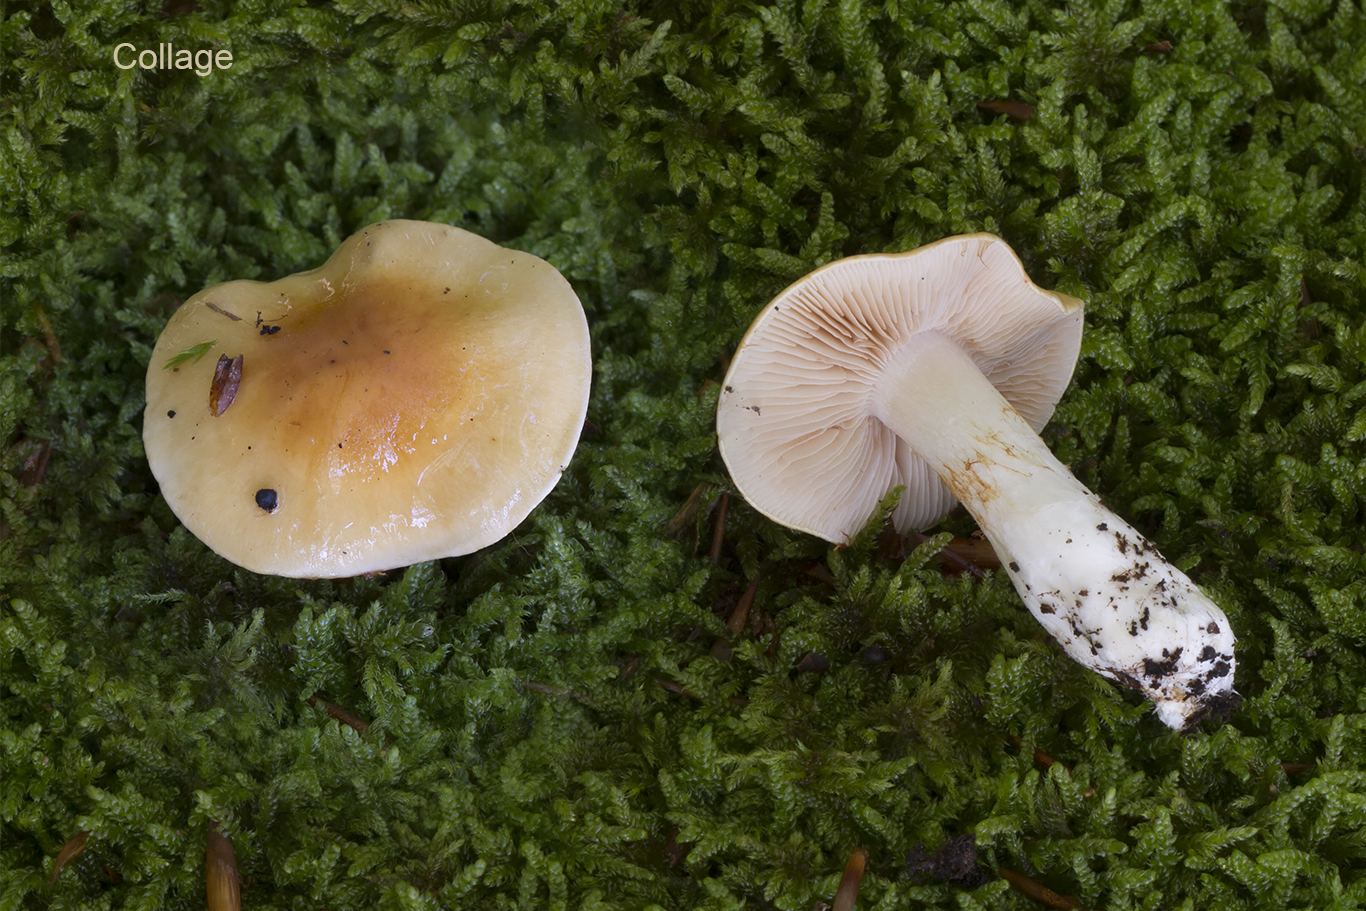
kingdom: Fungi
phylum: Basidiomycota
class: Agaricomycetes
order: Agaricales
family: Cortinariaceae
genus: Thaxterogaster
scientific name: Thaxterogaster emollitus
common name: besk slørhat
